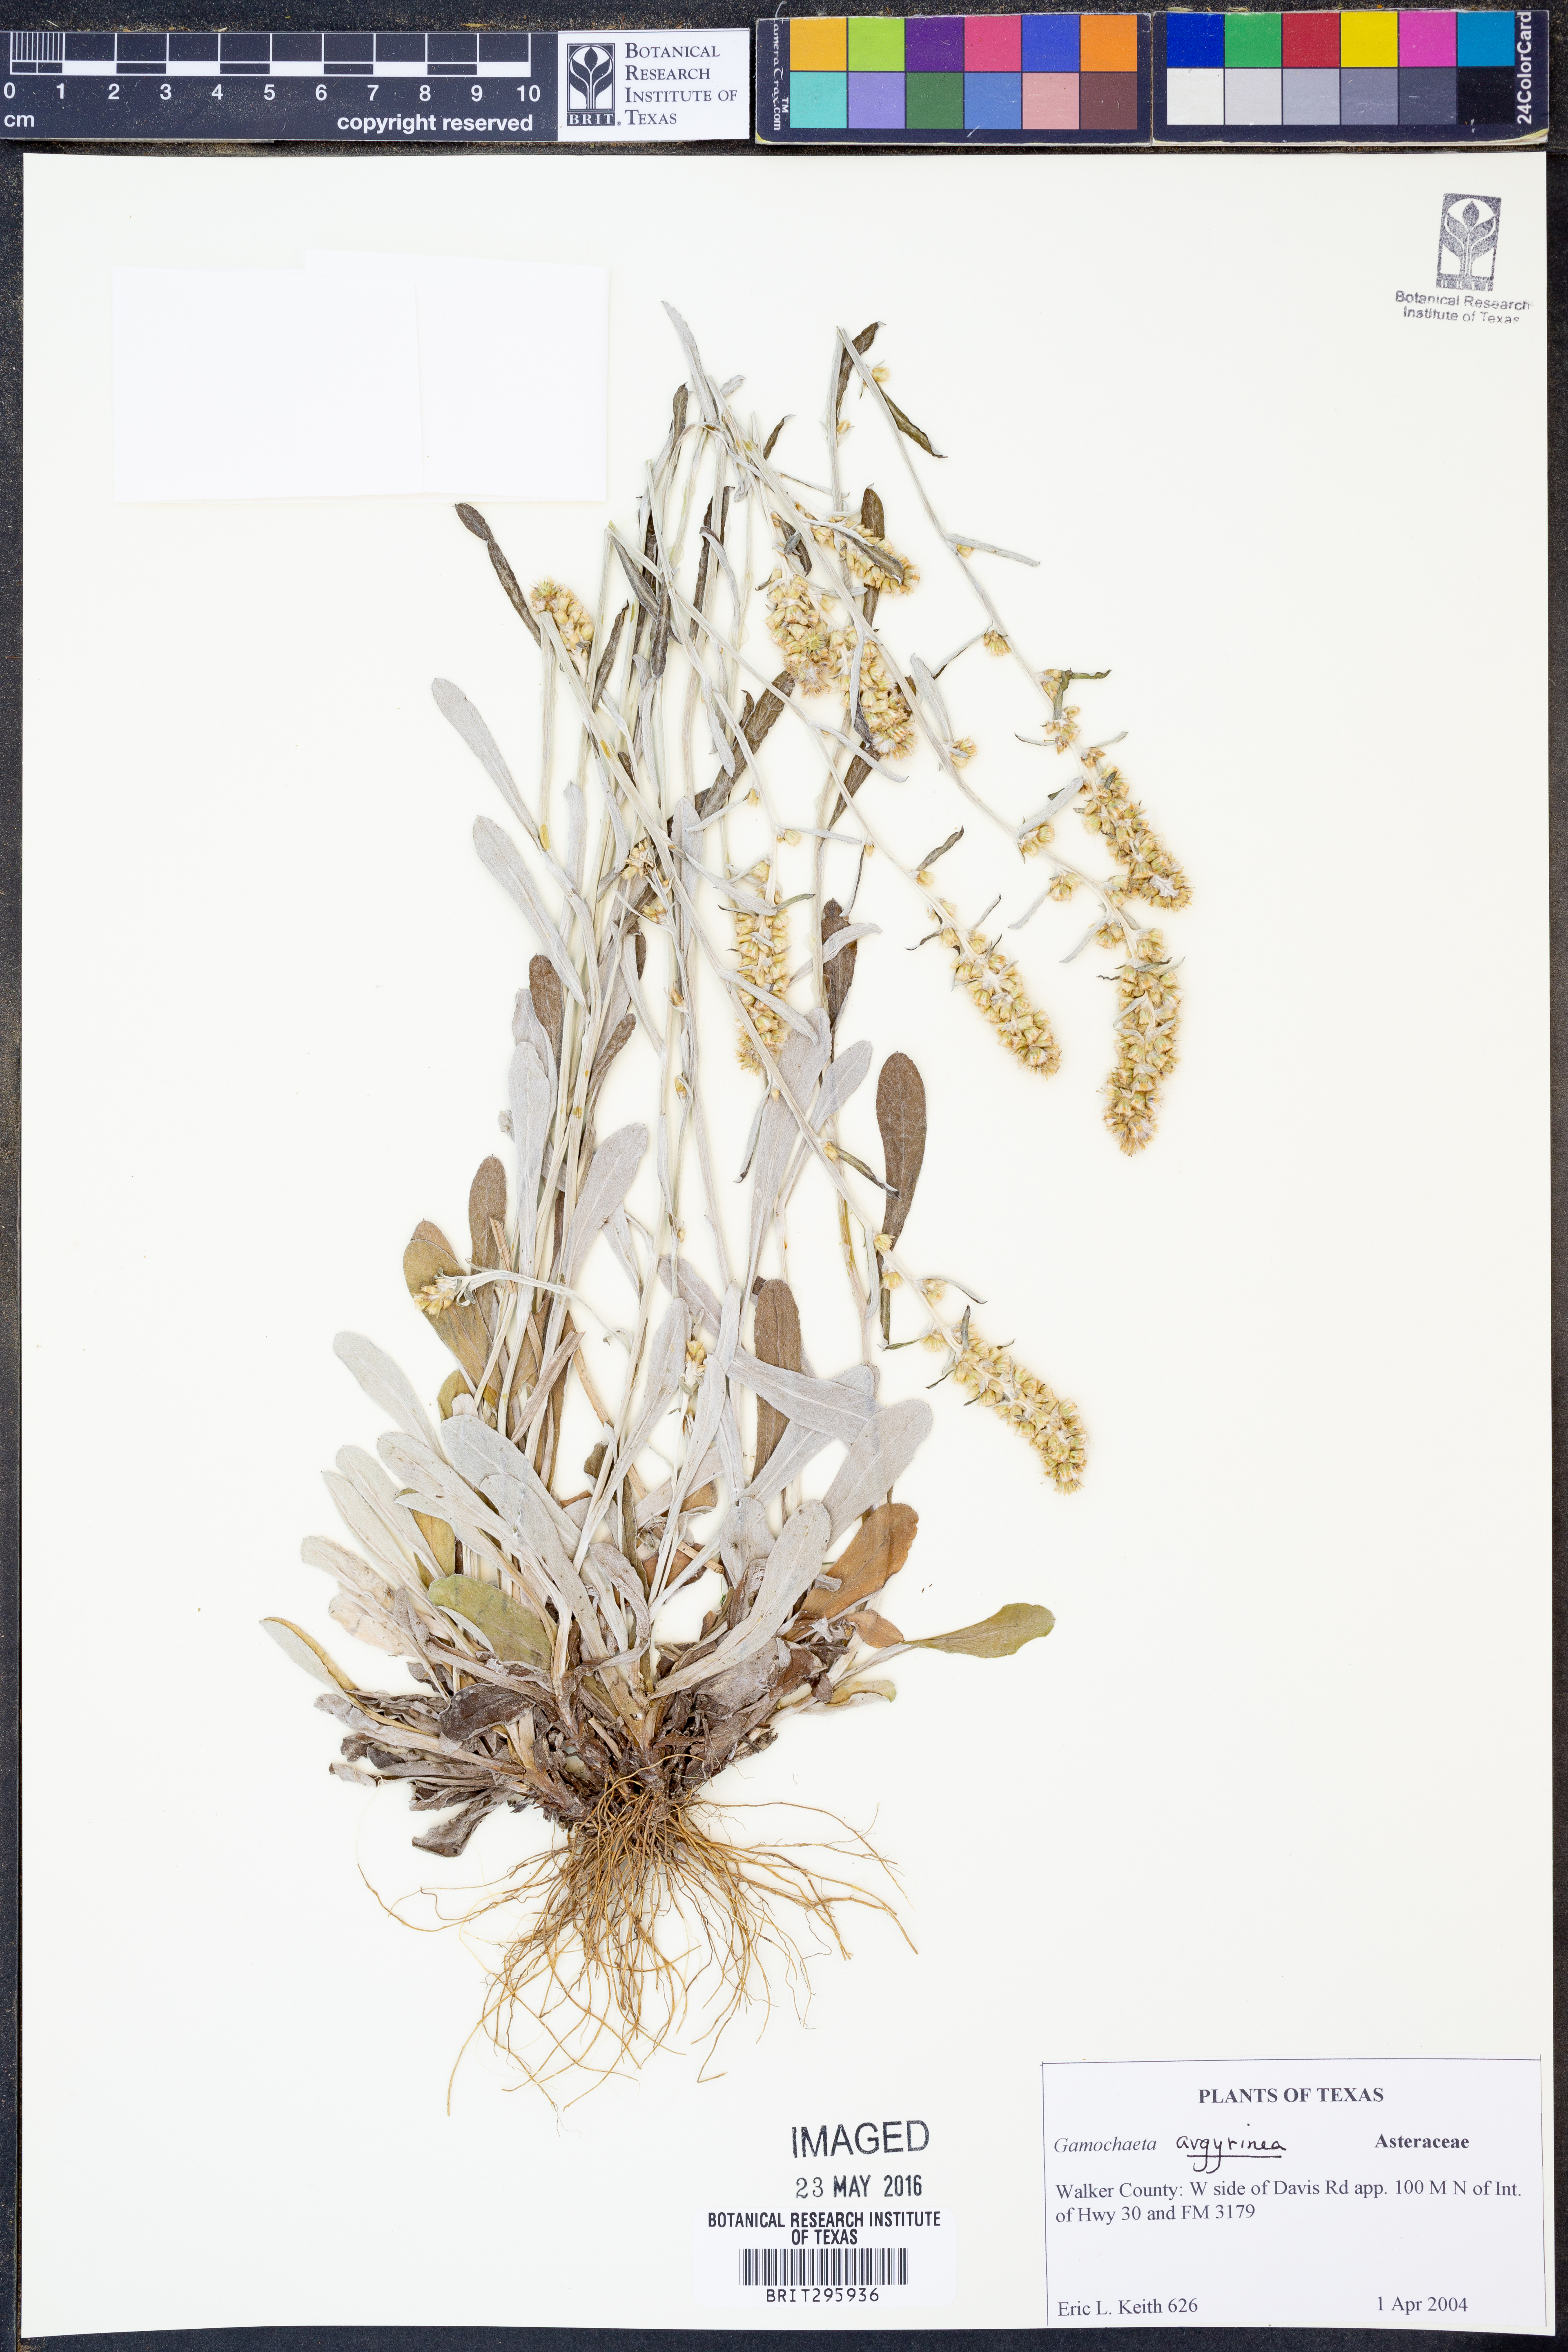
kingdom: Plantae
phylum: Tracheophyta
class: Magnoliopsida
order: Asterales
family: Asteraceae
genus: Gamochaeta
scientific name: Gamochaeta argyrinea
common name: Silvery cudweed
